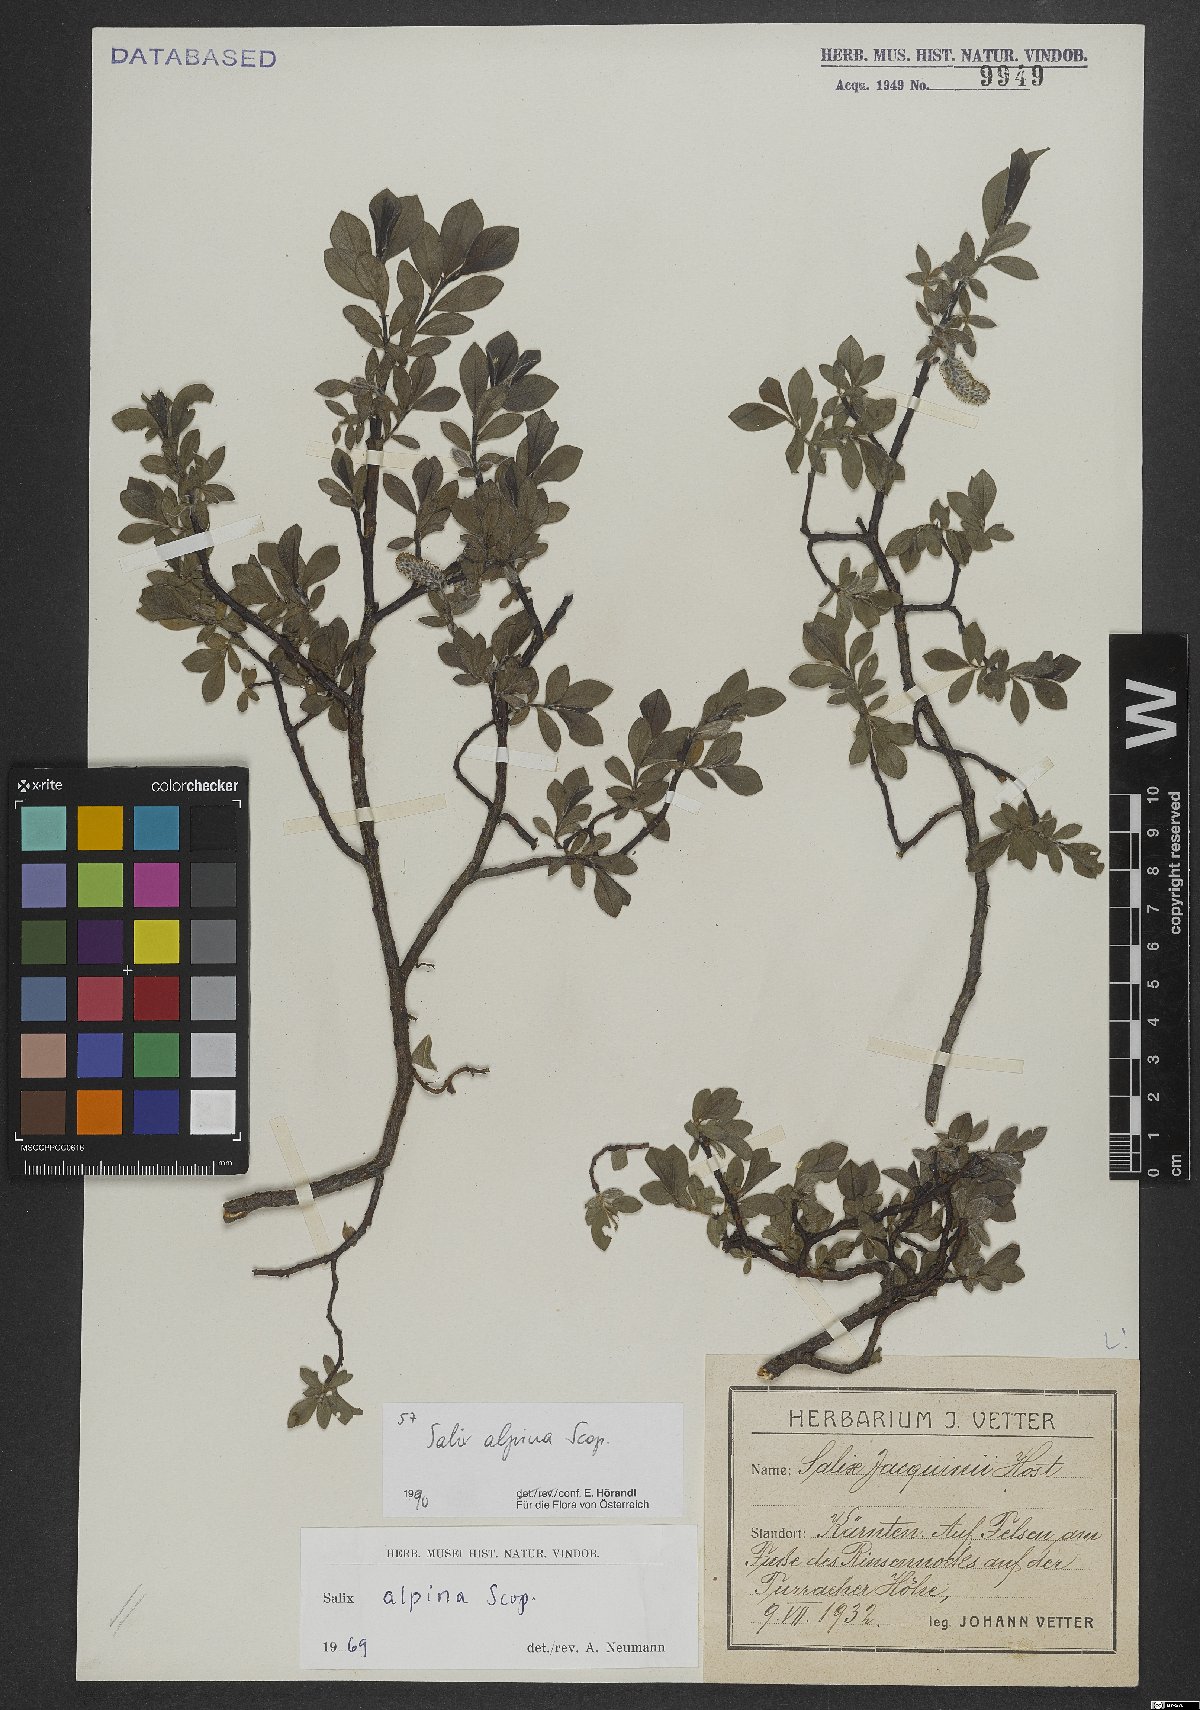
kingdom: Plantae
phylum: Tracheophyta
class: Magnoliopsida
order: Malpighiales
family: Salicaceae
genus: Salix
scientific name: Salix alpina
